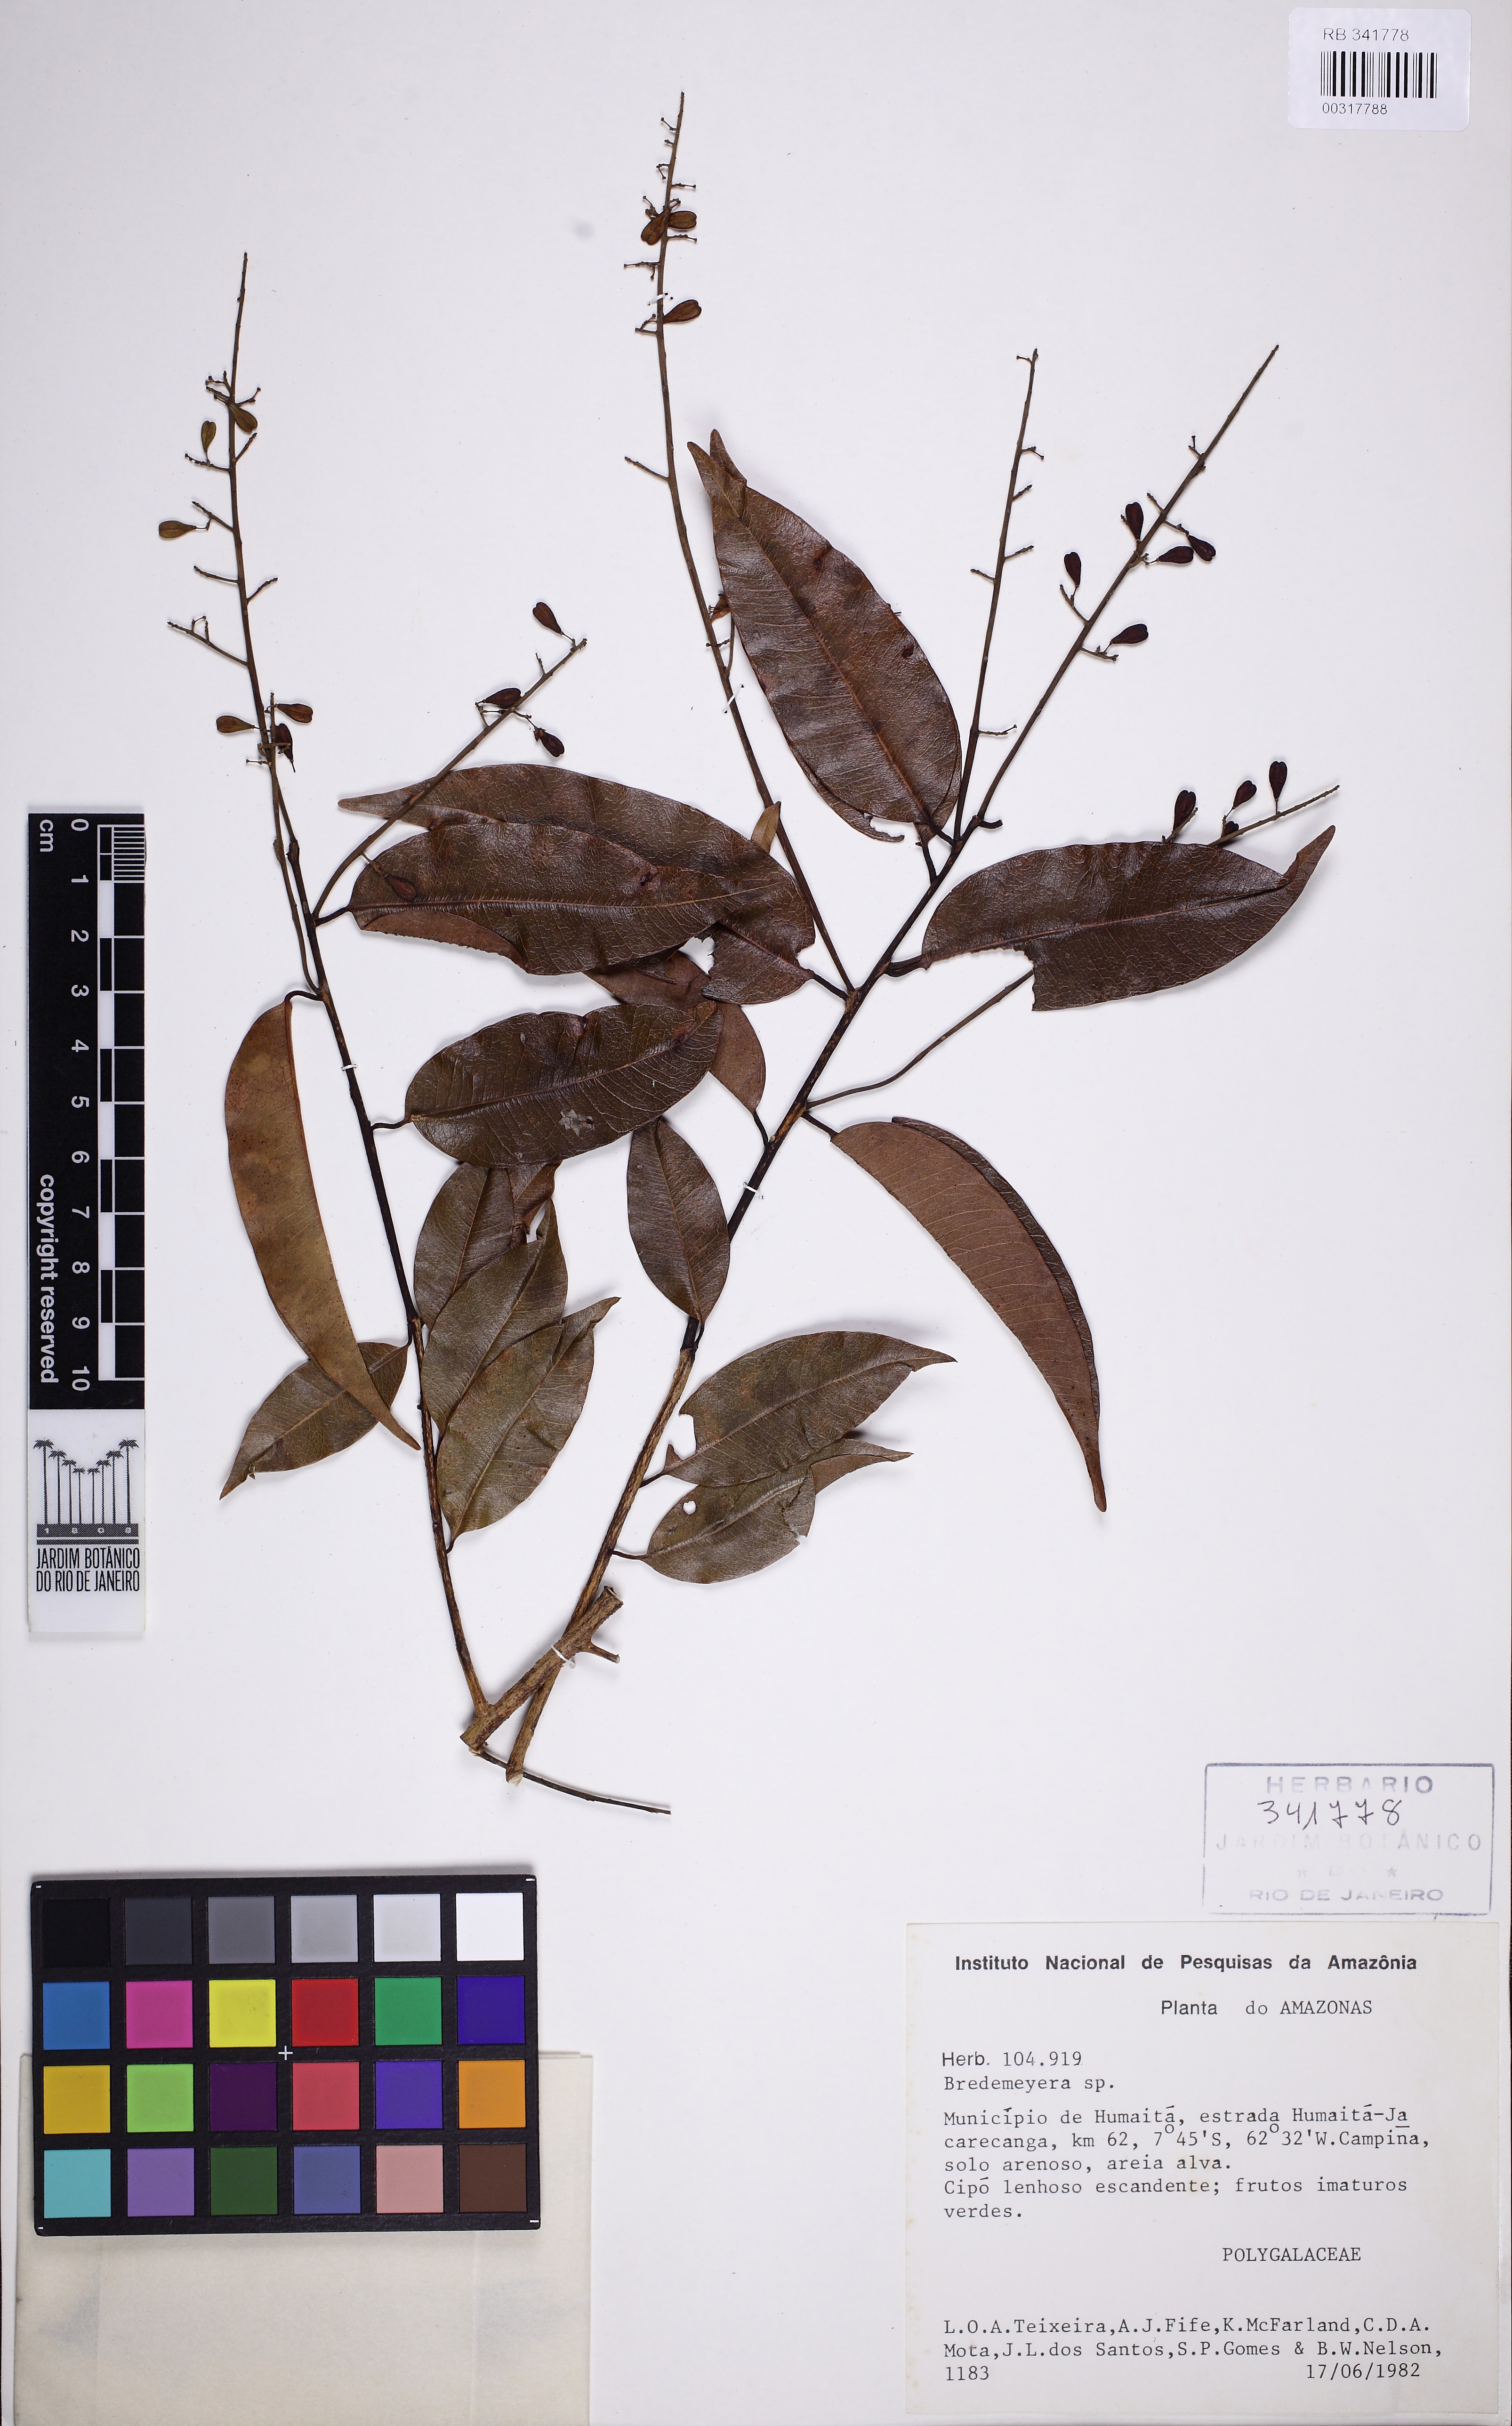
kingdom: Plantae
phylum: Tracheophyta
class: Magnoliopsida
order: Fabales
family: Polygalaceae
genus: Bredemeyera
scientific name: Bredemeyera myrtifolia
